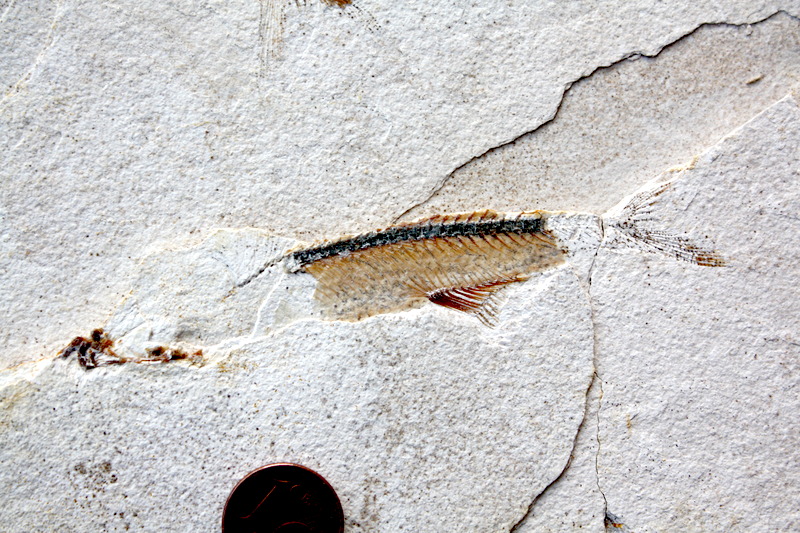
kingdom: Animalia
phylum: Chordata
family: Ascalaboidae
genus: Ebertichthys
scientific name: Ebertichthys ettlingensis
